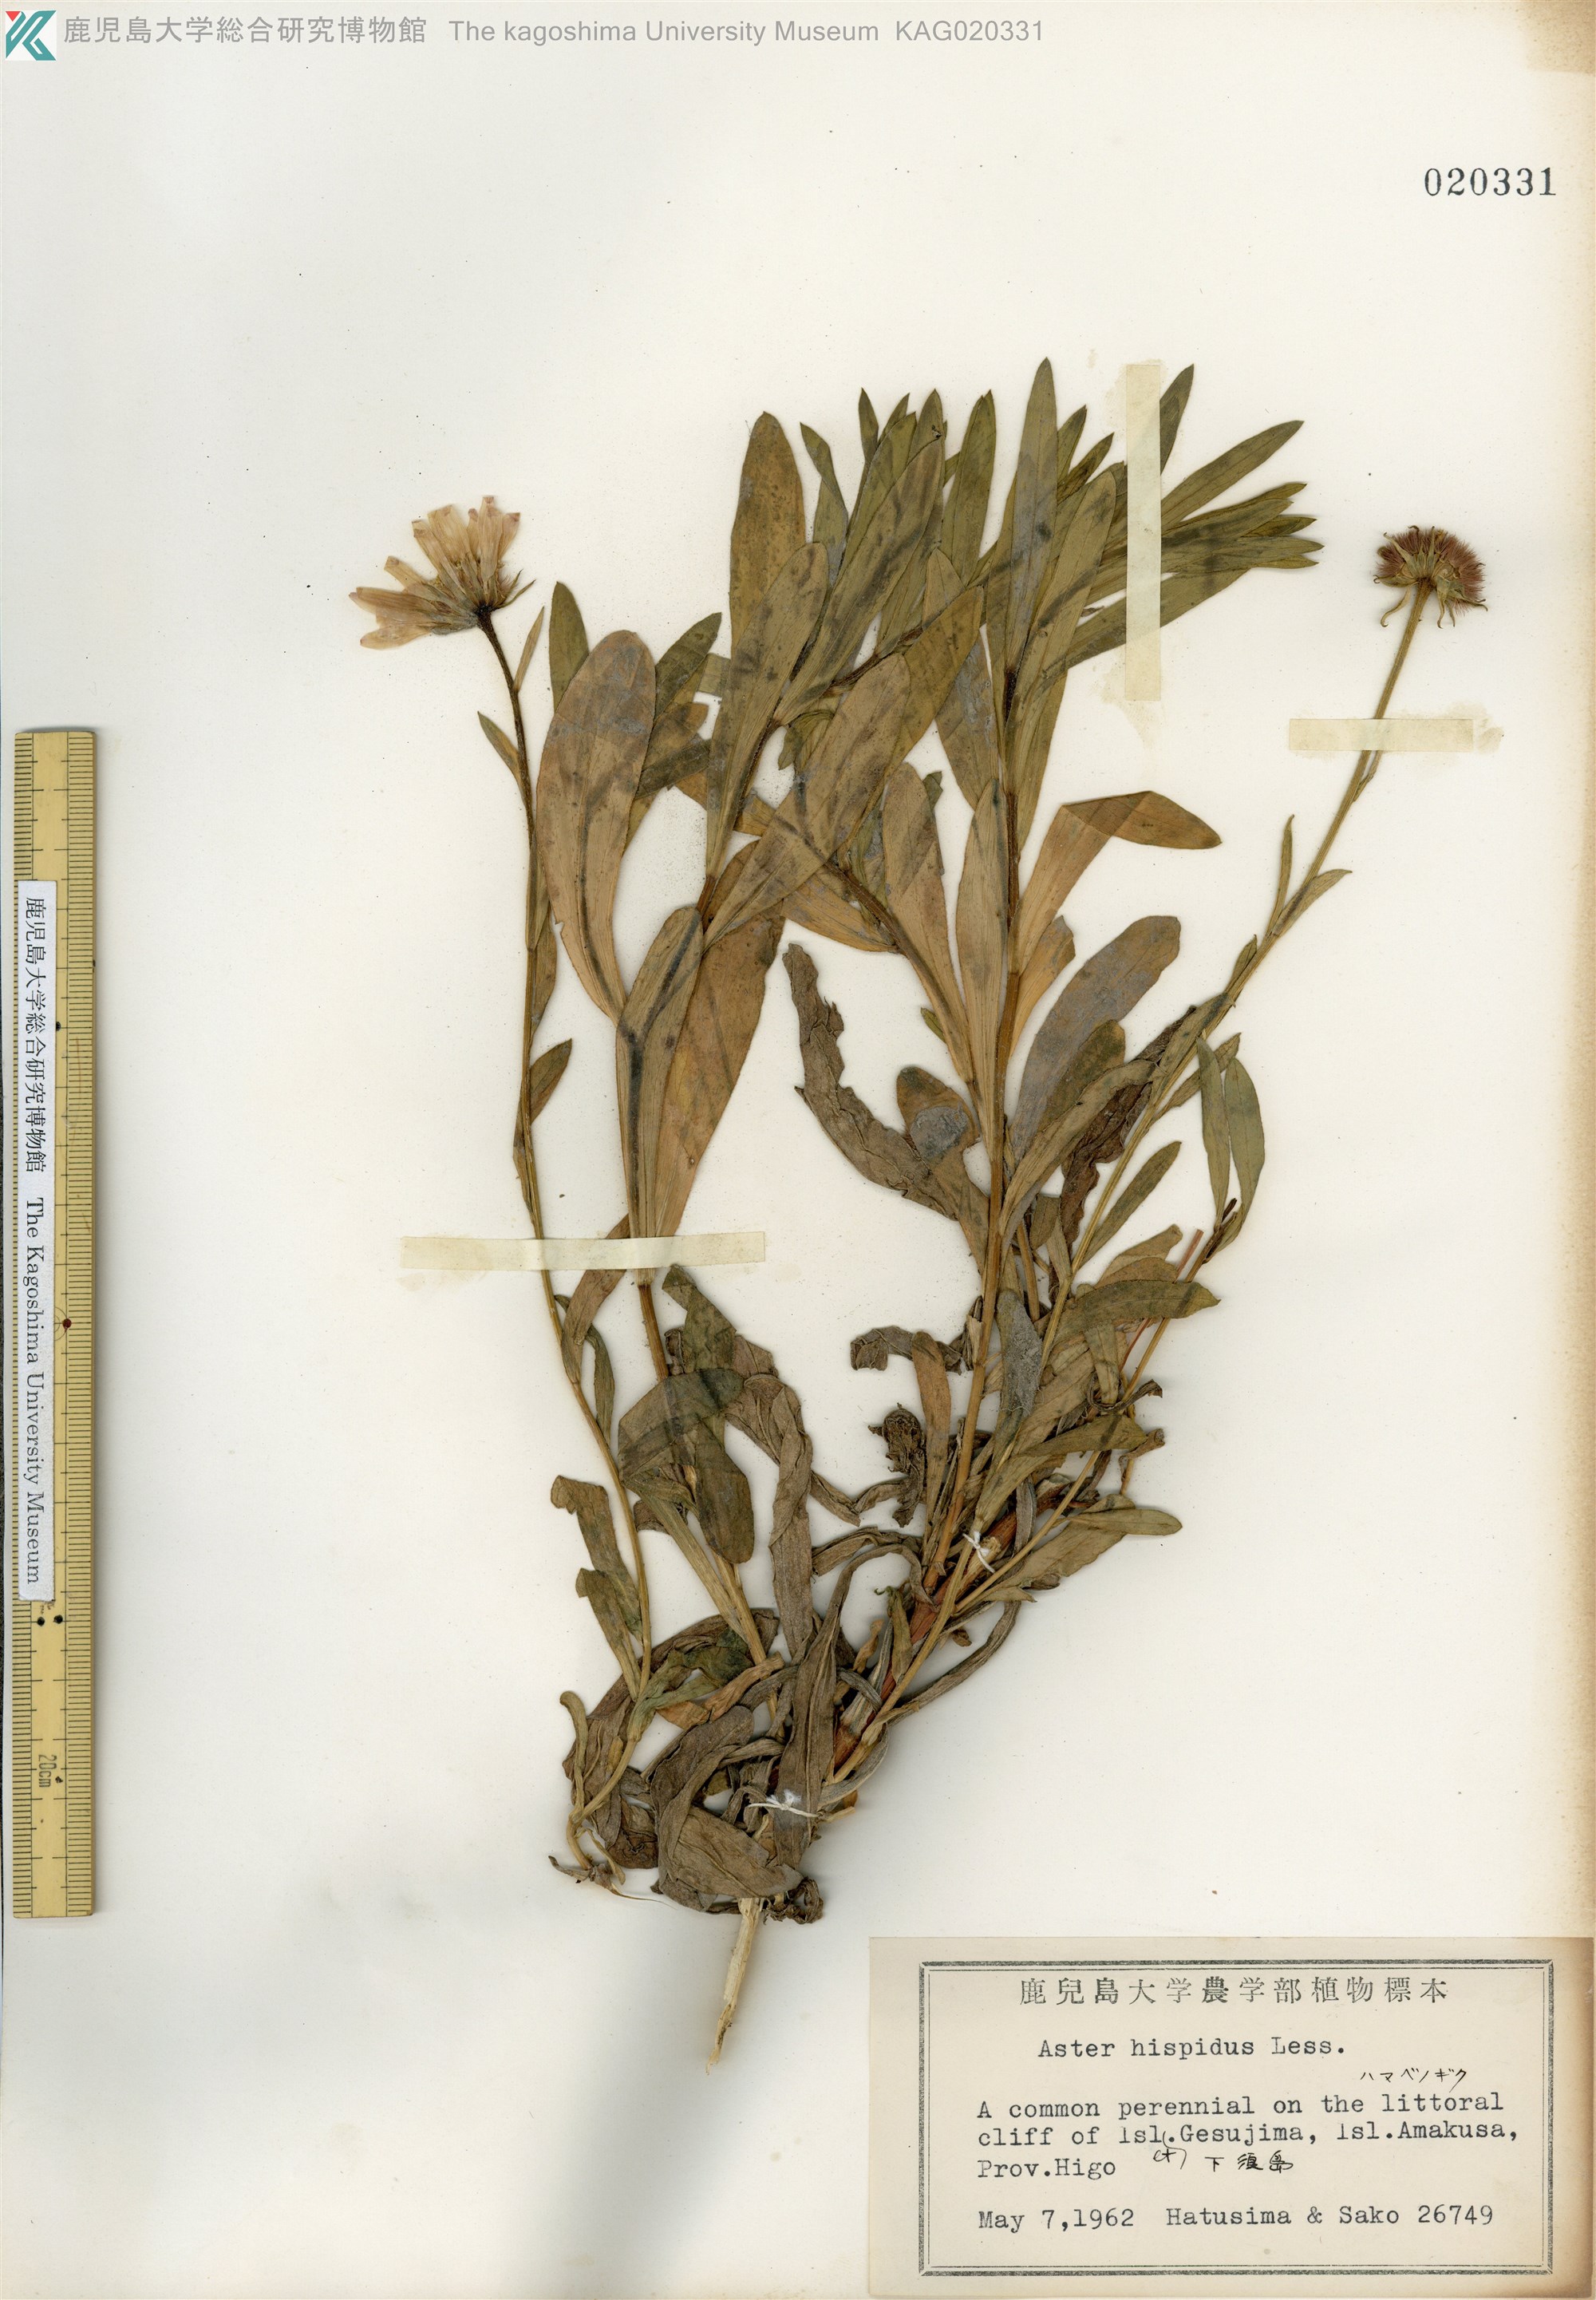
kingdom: Plantae
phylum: Tracheophyta
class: Magnoliopsida
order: Asterales
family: Asteraceae
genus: Heteropappus
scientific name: Heteropappus hispidus
